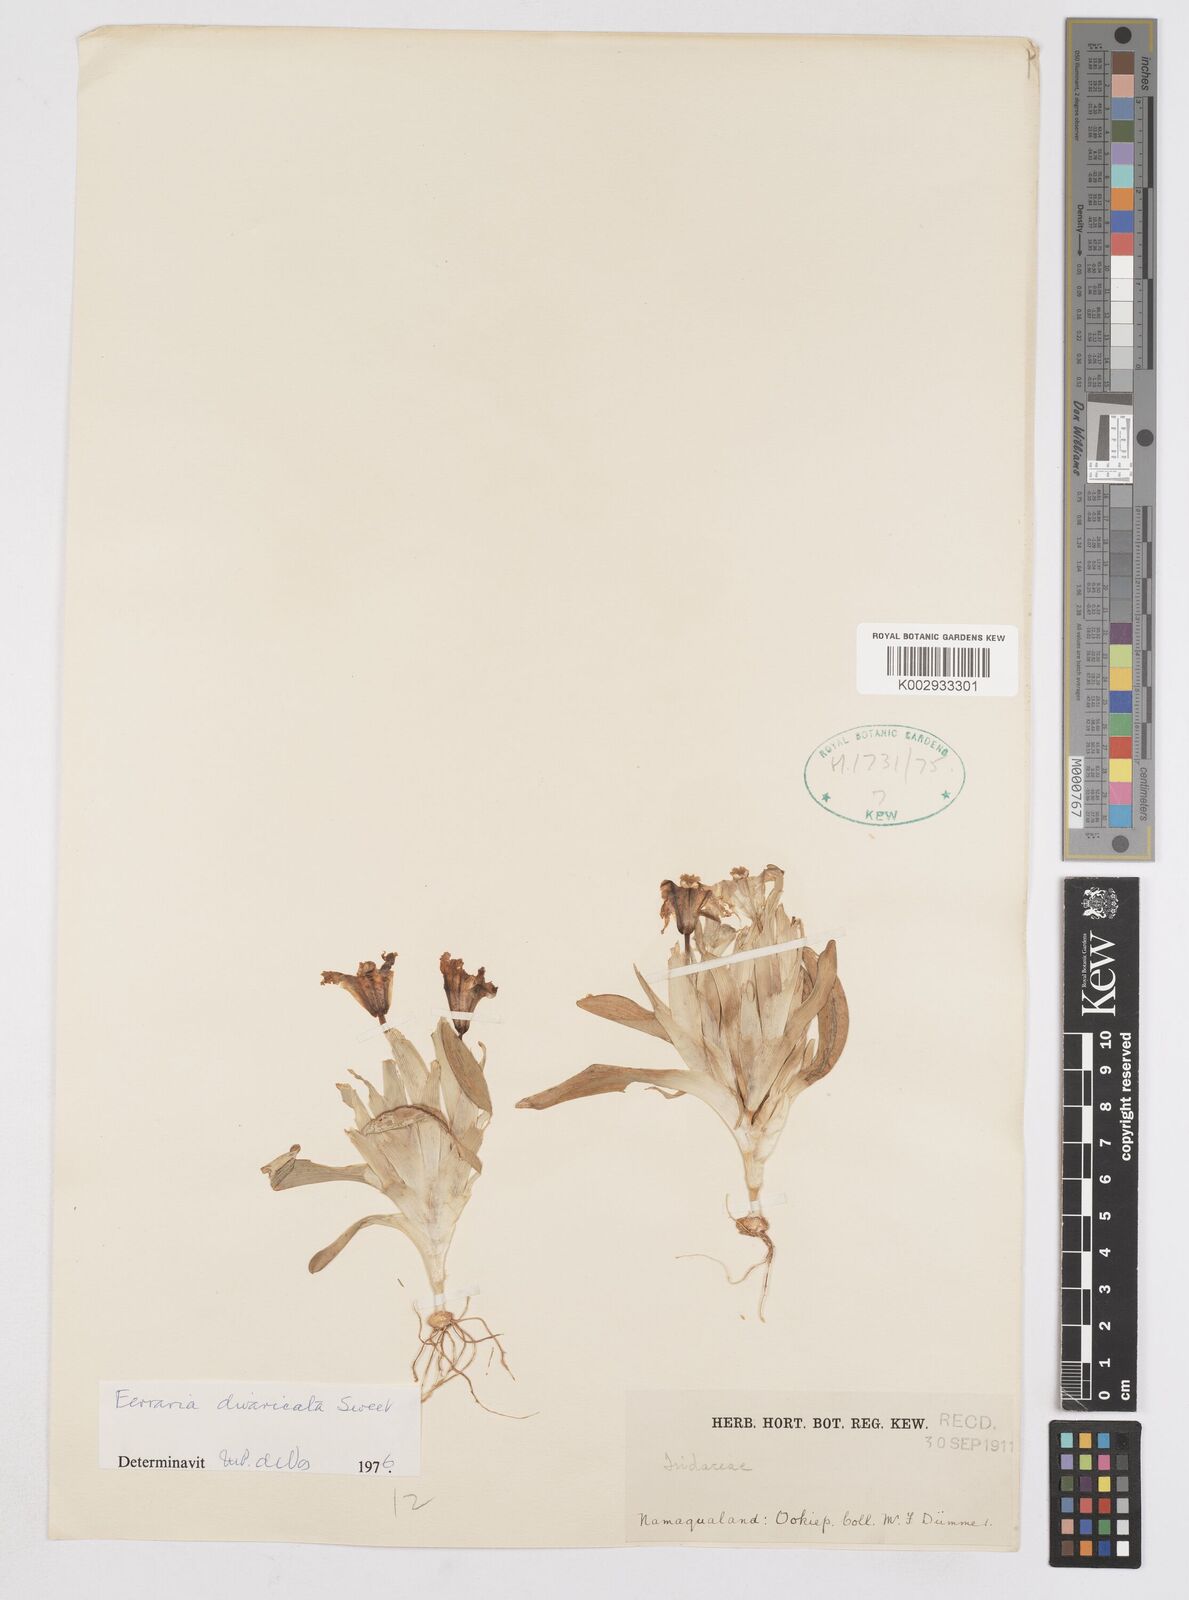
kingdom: Plantae
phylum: Tracheophyta
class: Liliopsida
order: Asparagales
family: Iridaceae
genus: Ferraria
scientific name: Ferraria divaricata
